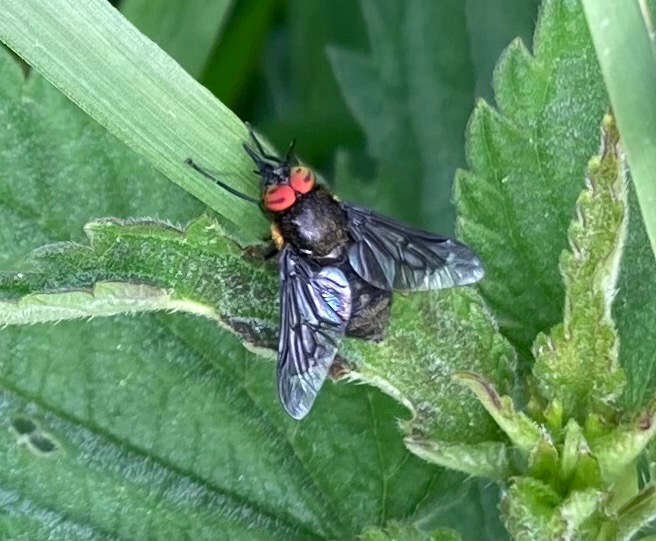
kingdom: Animalia
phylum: Arthropoda
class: Insecta
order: Diptera
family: Tabanidae
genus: Chrysops
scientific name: Chrysops sepulcralis
